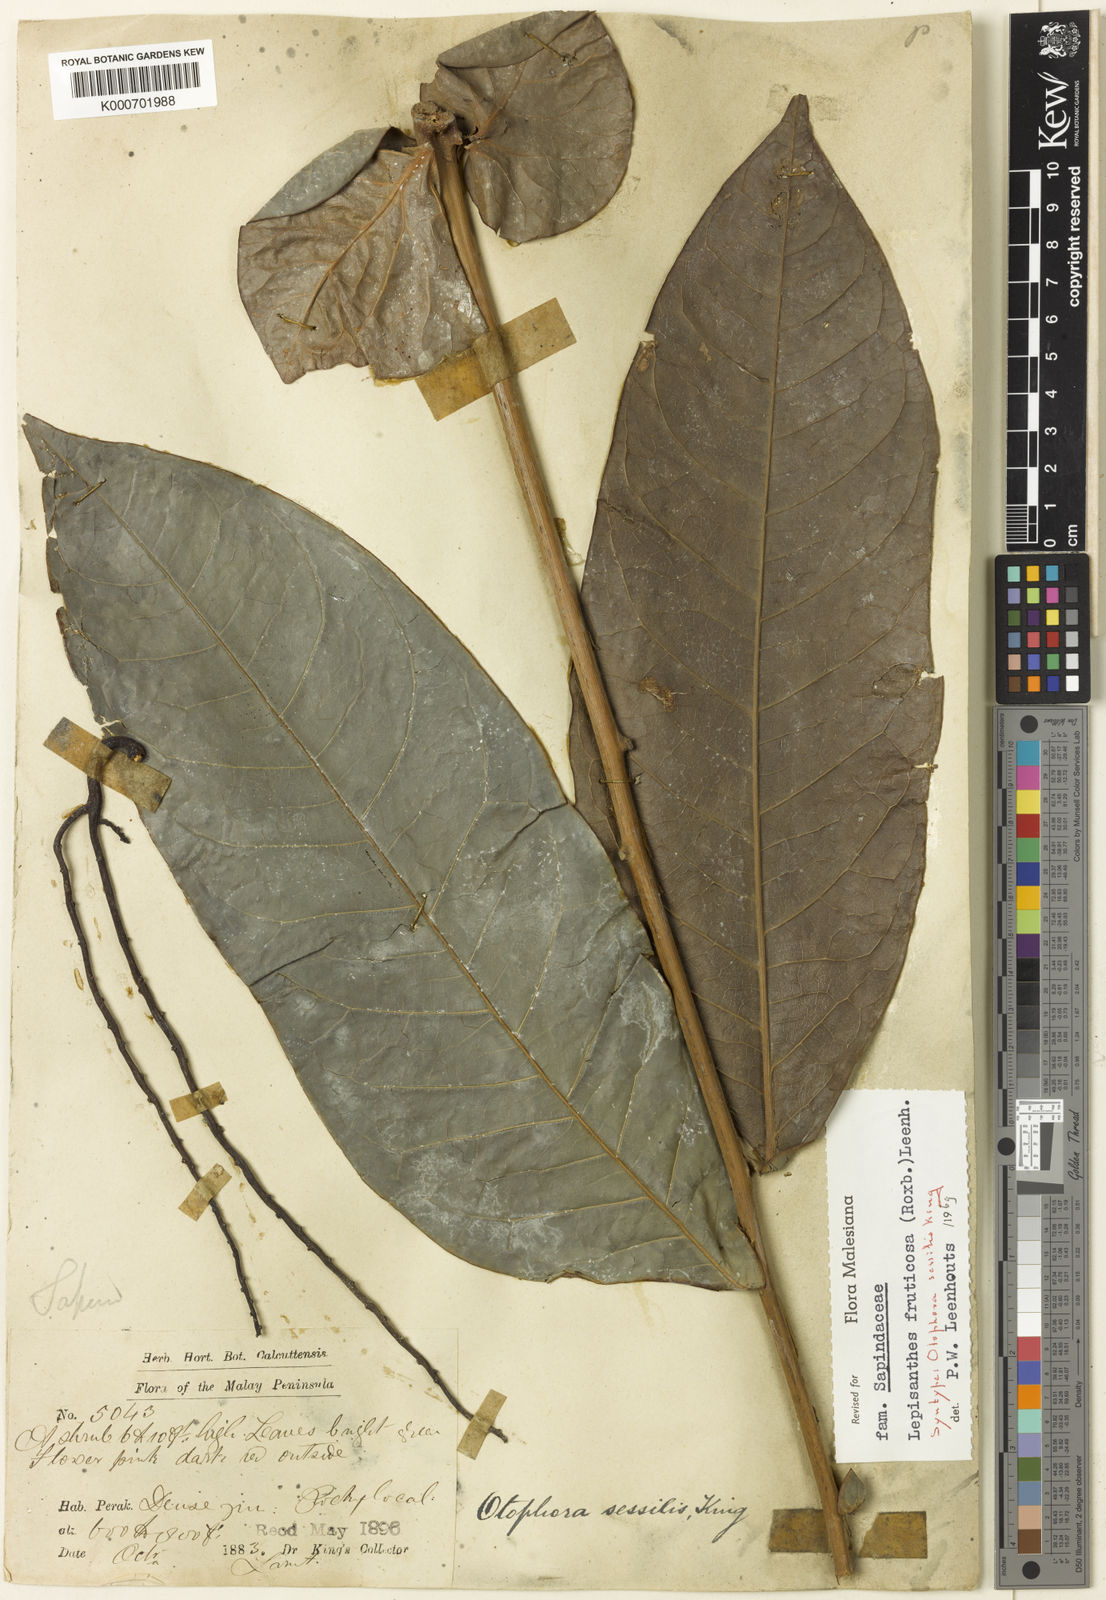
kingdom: Plantae
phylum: Tracheophyta
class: Magnoliopsida
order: Sapindales
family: Sapindaceae
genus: Lepisanthes
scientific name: Lepisanthes fruticosa
